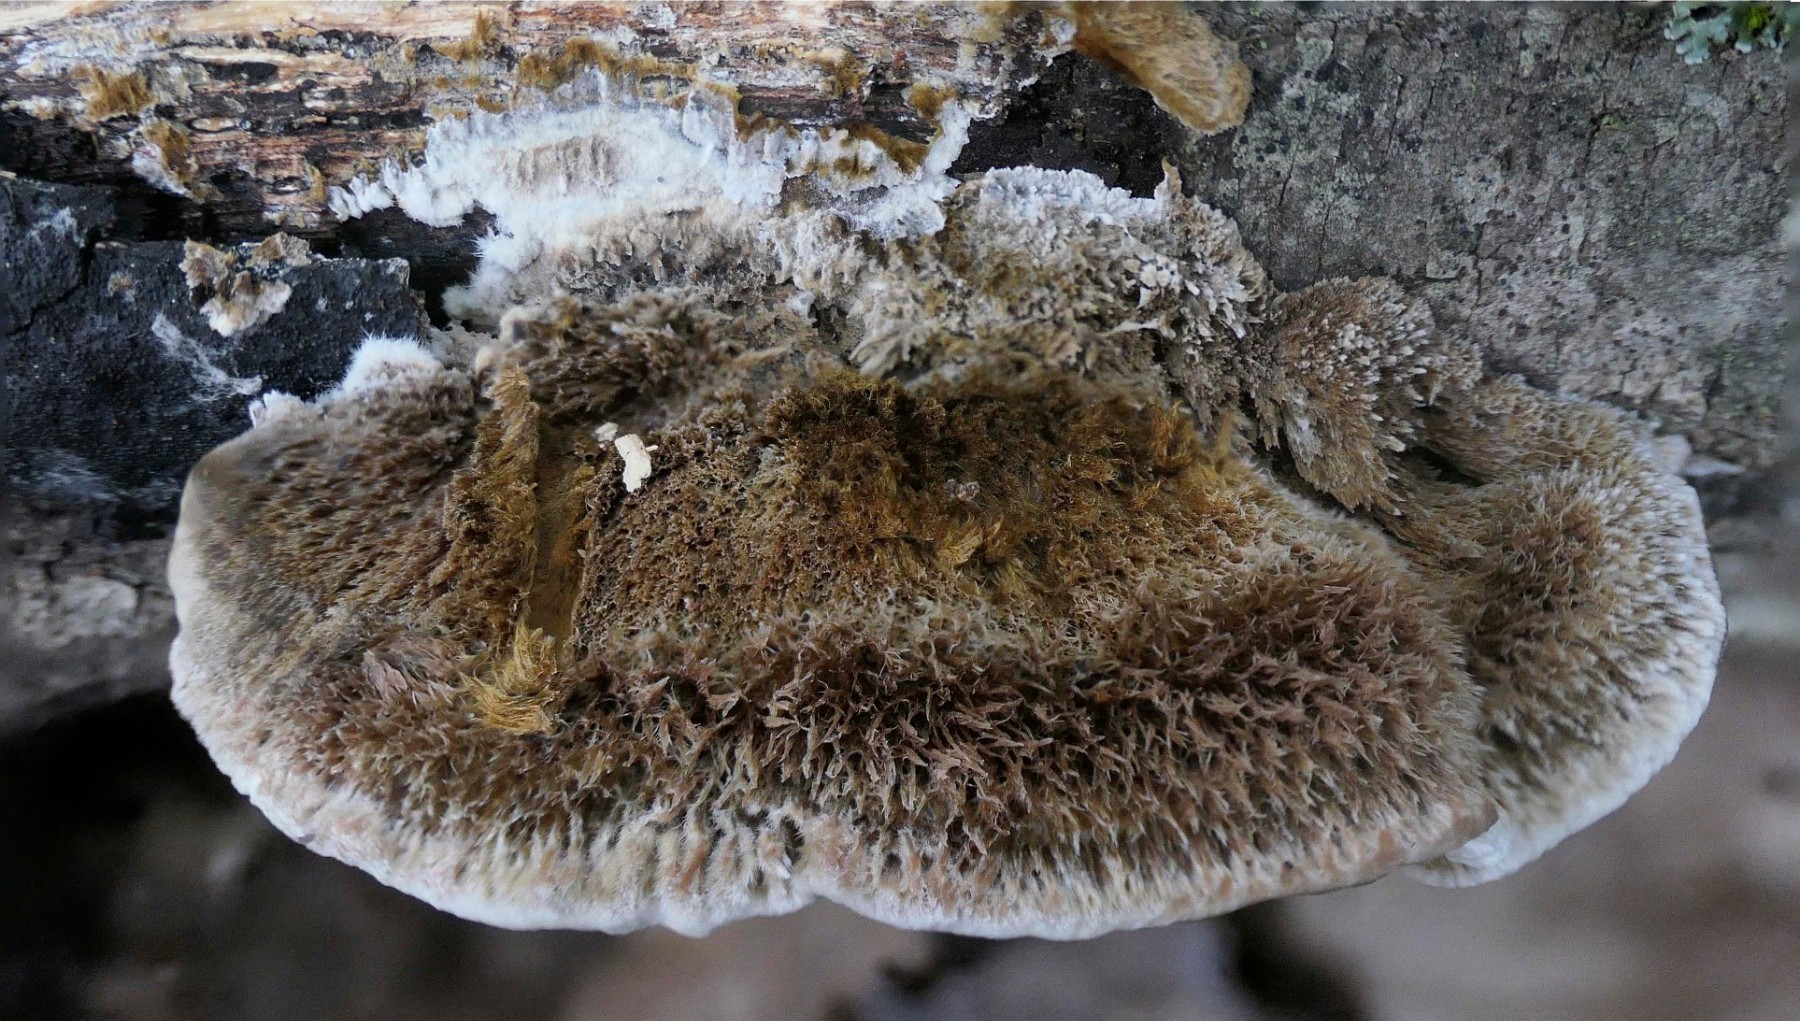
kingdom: Fungi
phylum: Basidiomycota
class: Agaricomycetes
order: Polyporales
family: Polyporaceae
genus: Coriolopsis
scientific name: Coriolopsis gallica
